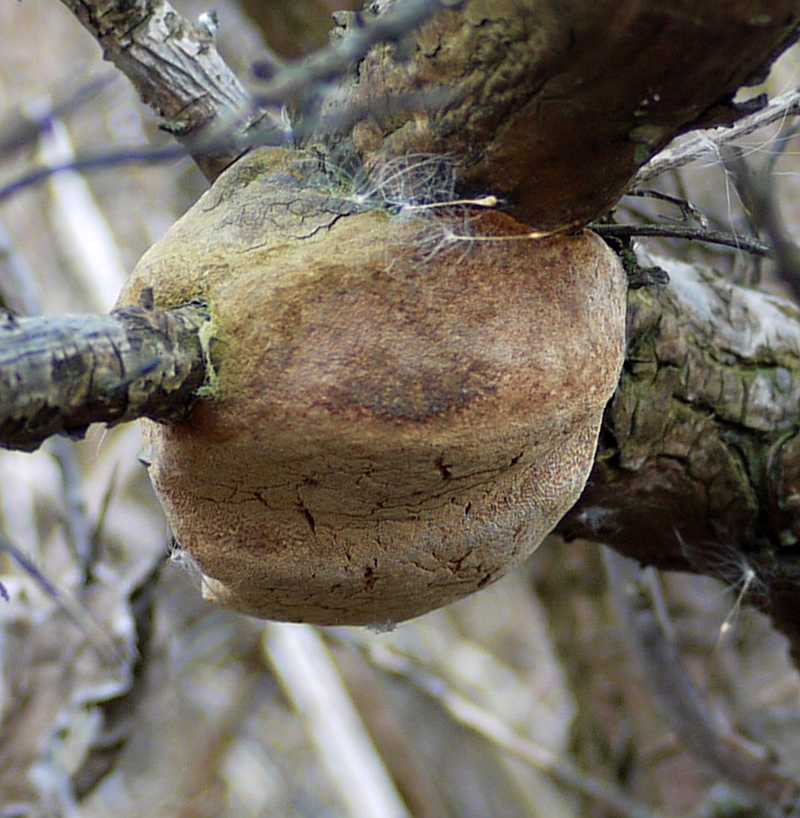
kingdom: Fungi
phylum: Basidiomycota
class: Agaricomycetes
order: Hymenochaetales
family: Hymenochaetaceae
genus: Fomitiporia
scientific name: Fomitiporia hippophaeicola
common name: havtorn-ildporesvamp
